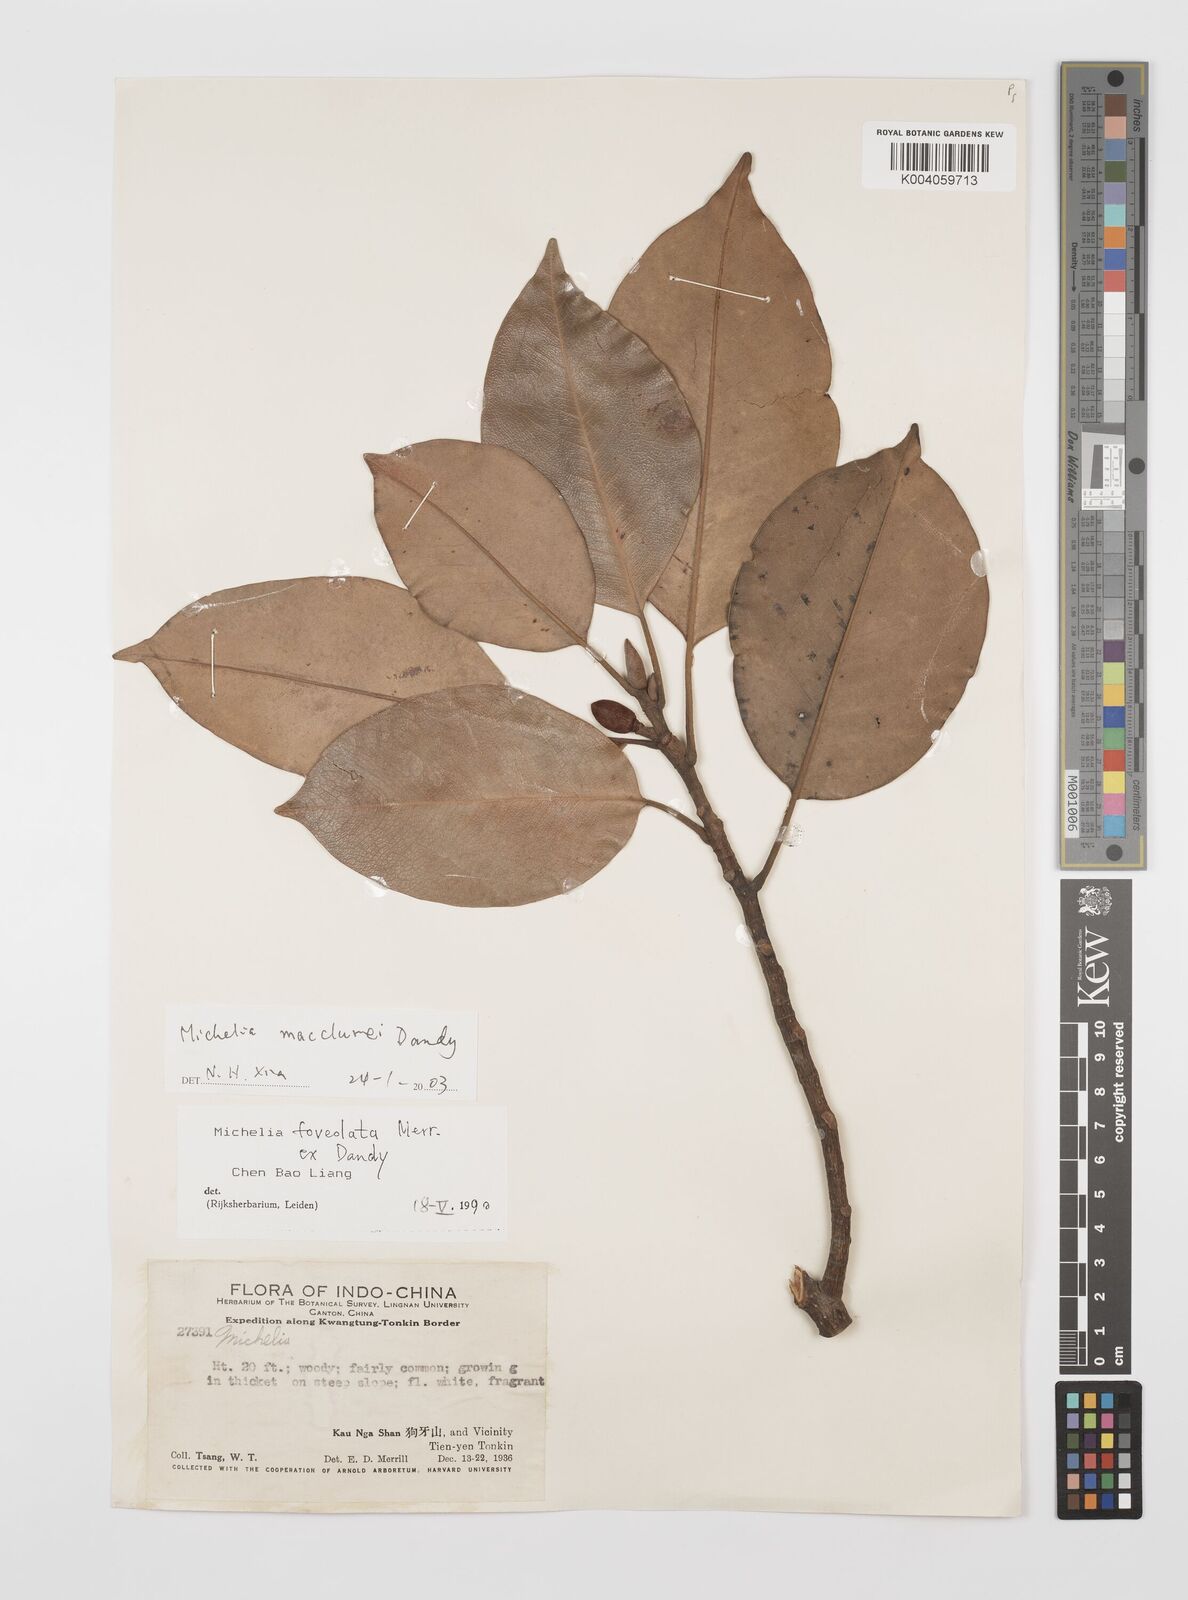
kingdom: Plantae
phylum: Tracheophyta
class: Magnoliopsida
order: Magnoliales
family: Magnoliaceae
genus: Magnolia
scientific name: Magnolia mediocris
